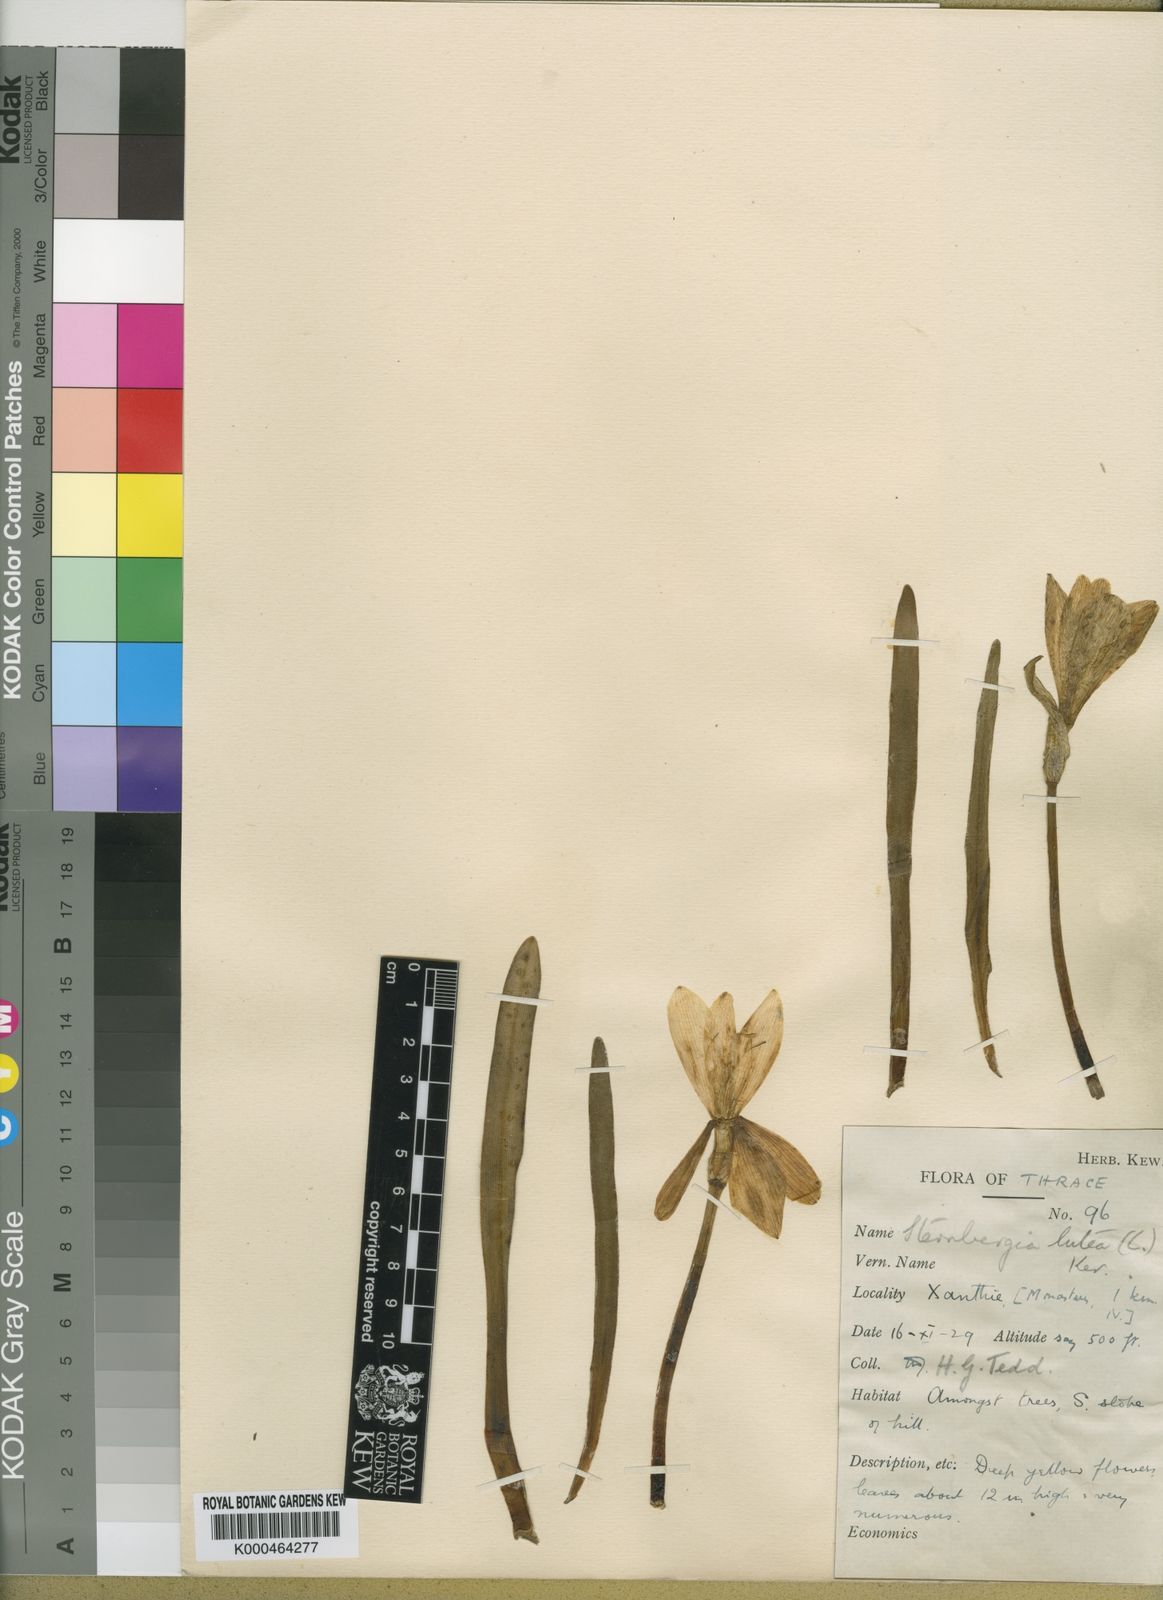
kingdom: Plantae
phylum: Tracheophyta
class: Liliopsida
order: Asparagales
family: Amaryllidaceae
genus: Sternbergia
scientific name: Sternbergia
